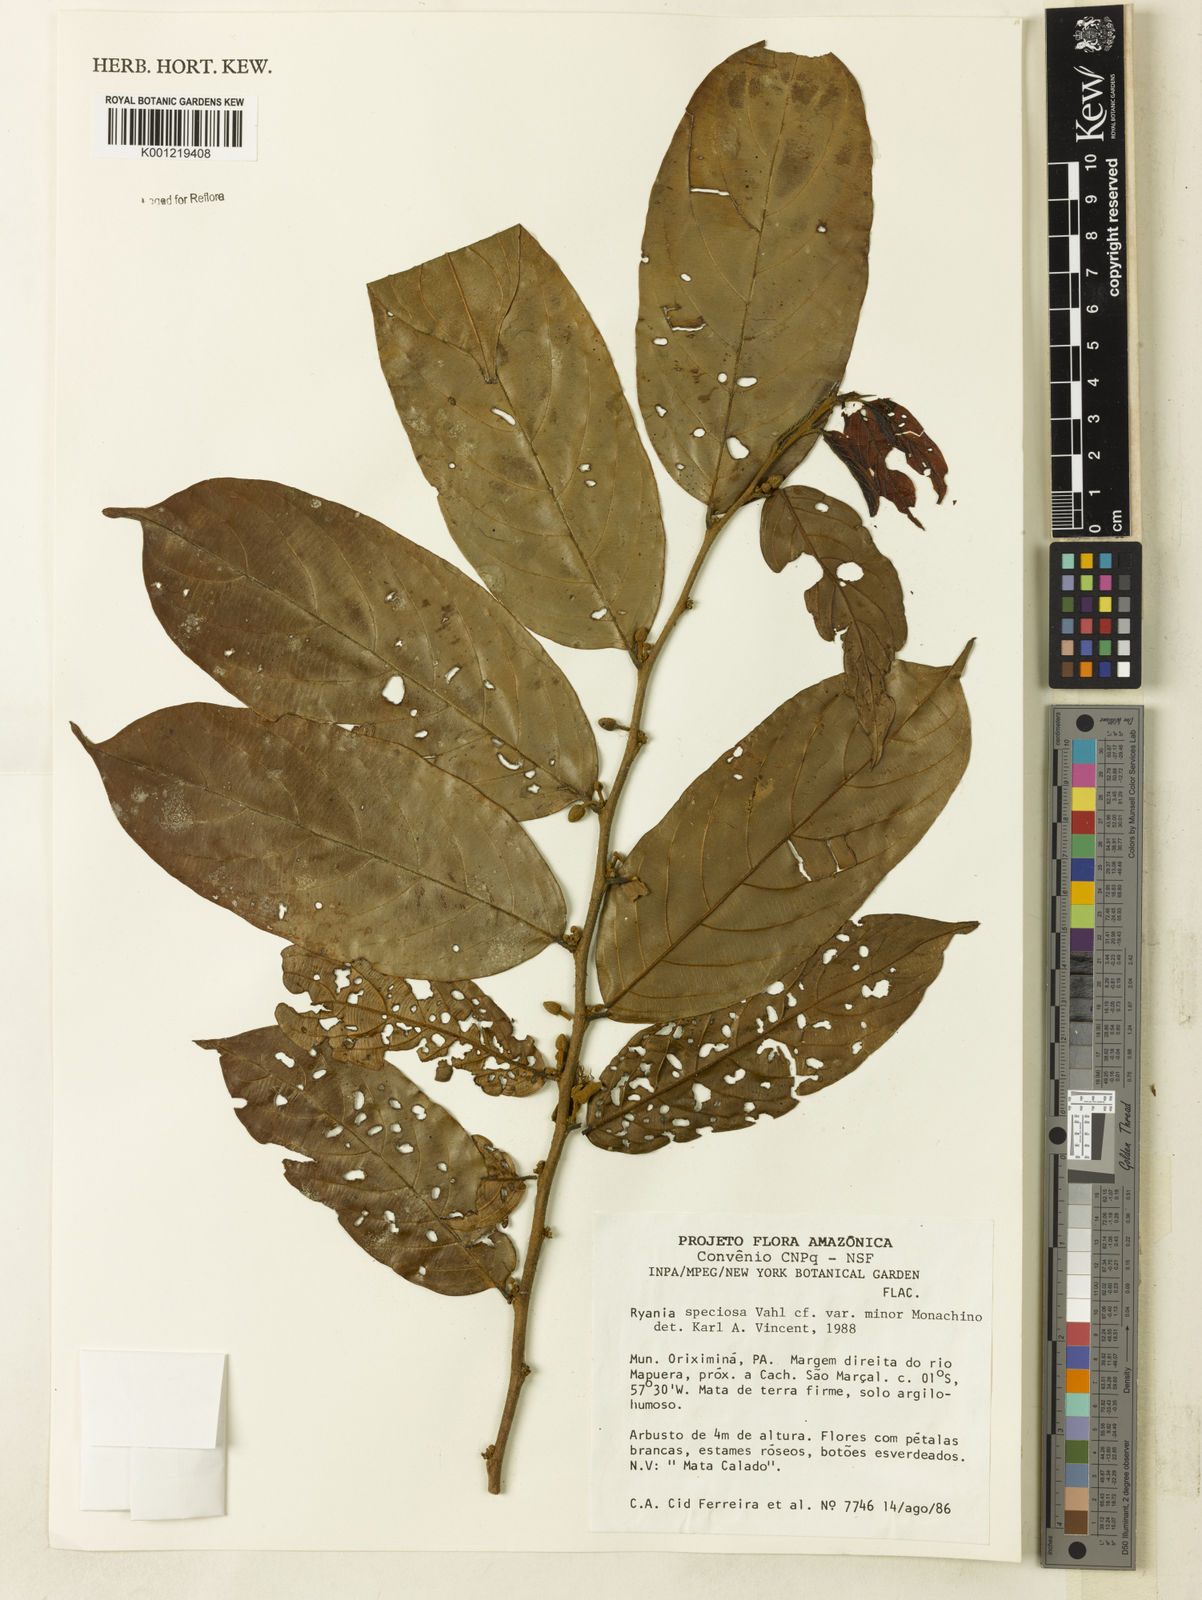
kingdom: Plantae
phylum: Tracheophyta
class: Magnoliopsida
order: Malpighiales
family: Salicaceae
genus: Ryania
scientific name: Ryania speciosa
